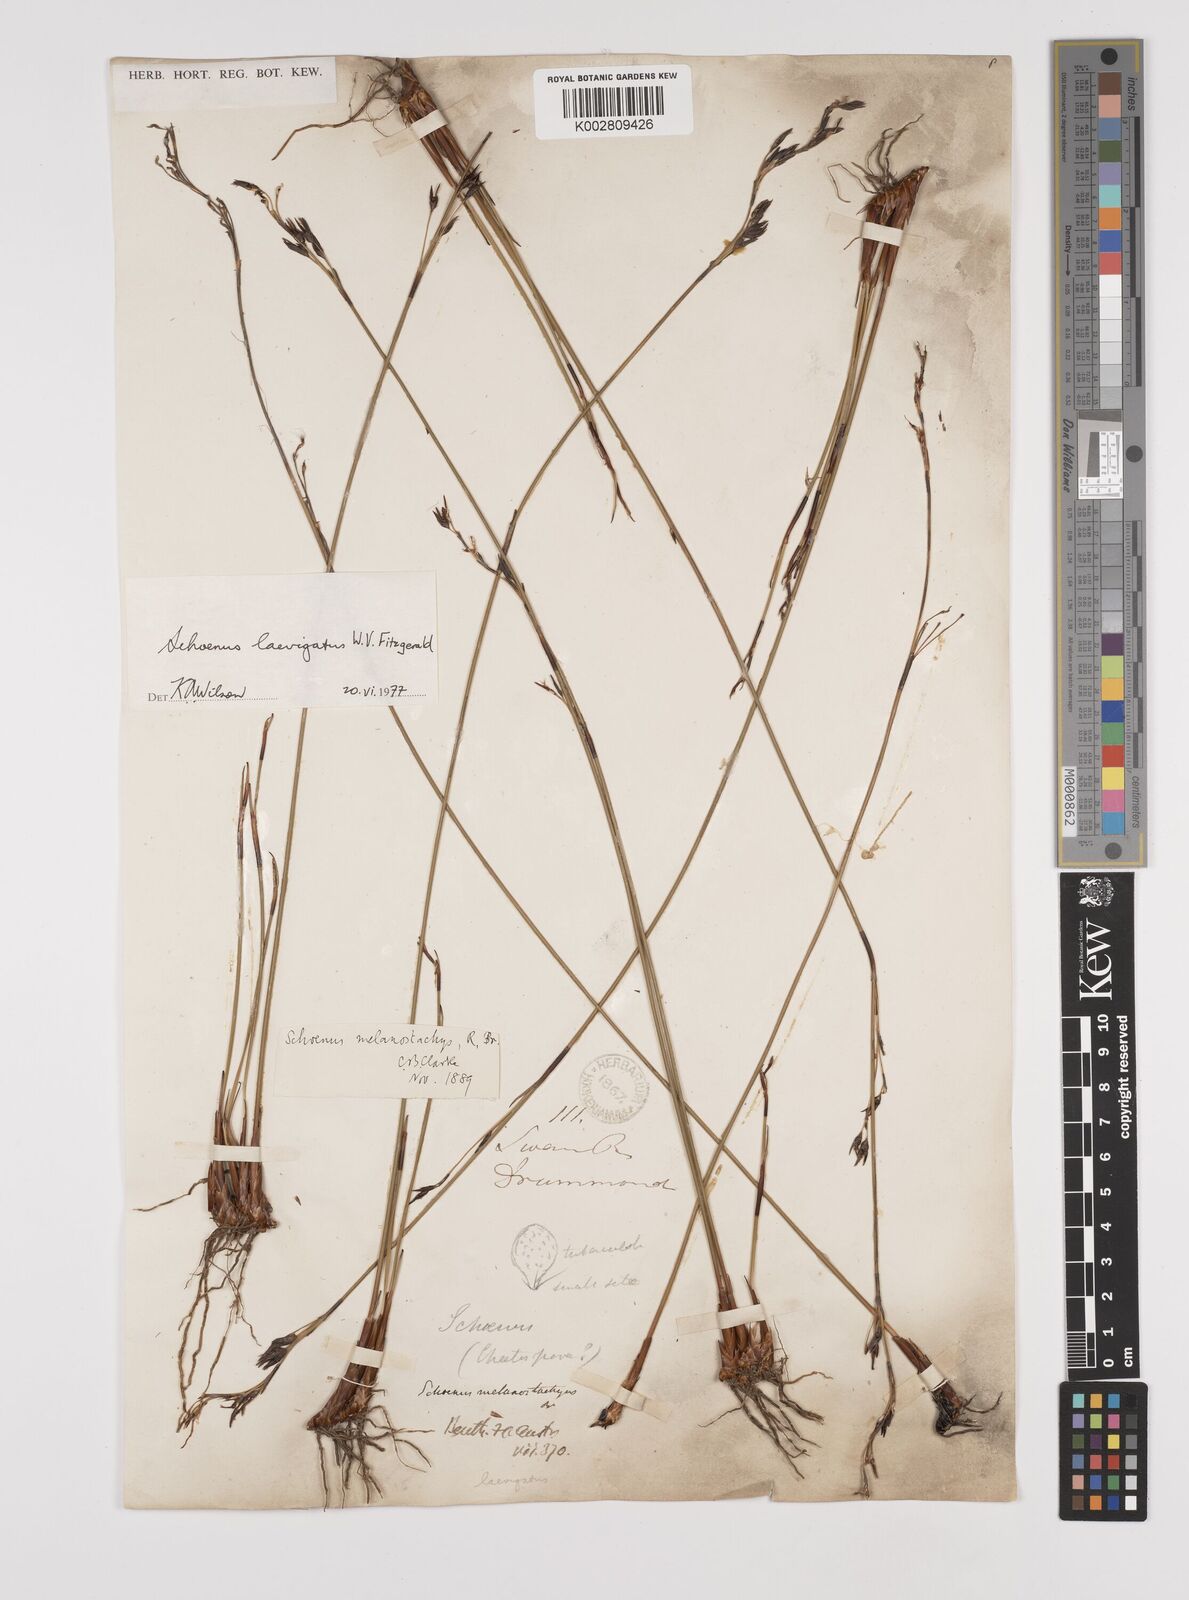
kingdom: Plantae
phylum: Tracheophyta
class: Liliopsida
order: Poales
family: Cyperaceae
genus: Schoenus
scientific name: Schoenus laevigatus
